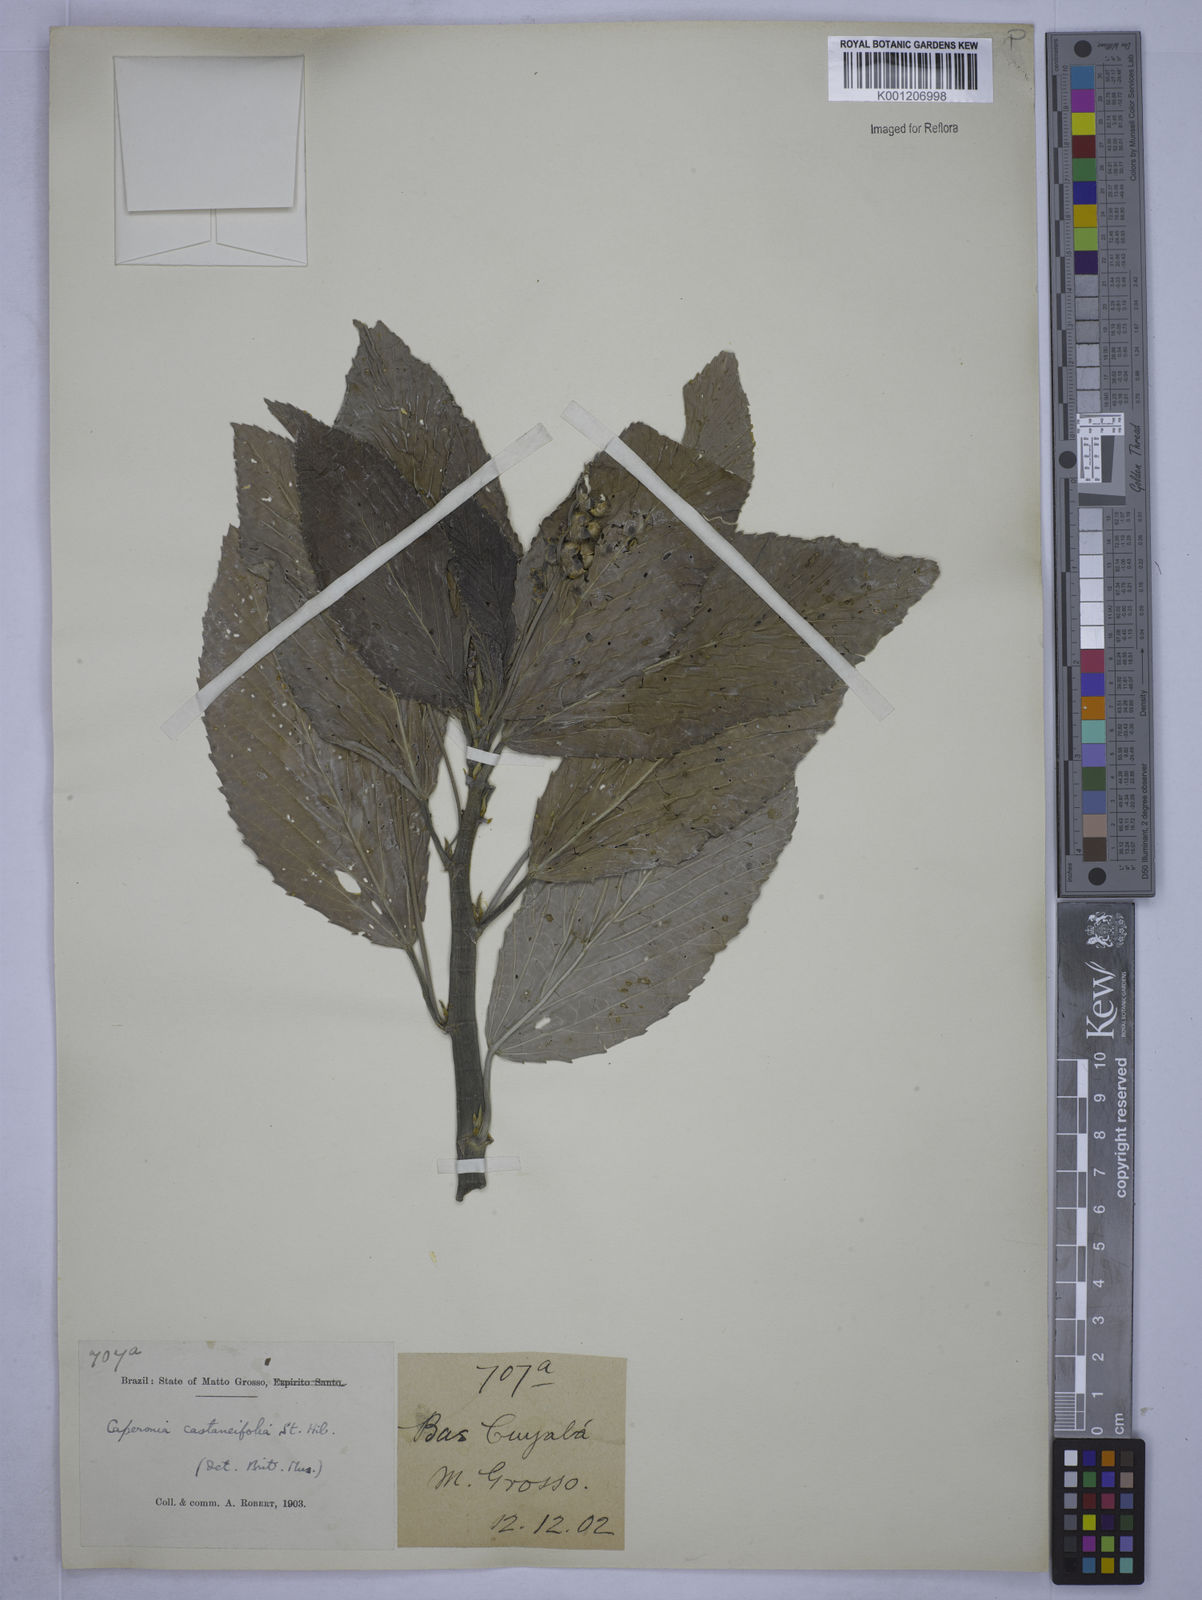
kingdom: Plantae
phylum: Tracheophyta
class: Magnoliopsida
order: Malpighiales
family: Euphorbiaceae
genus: Caperonia
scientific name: Caperonia castaneifolia
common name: Chestnutleaf false croton
